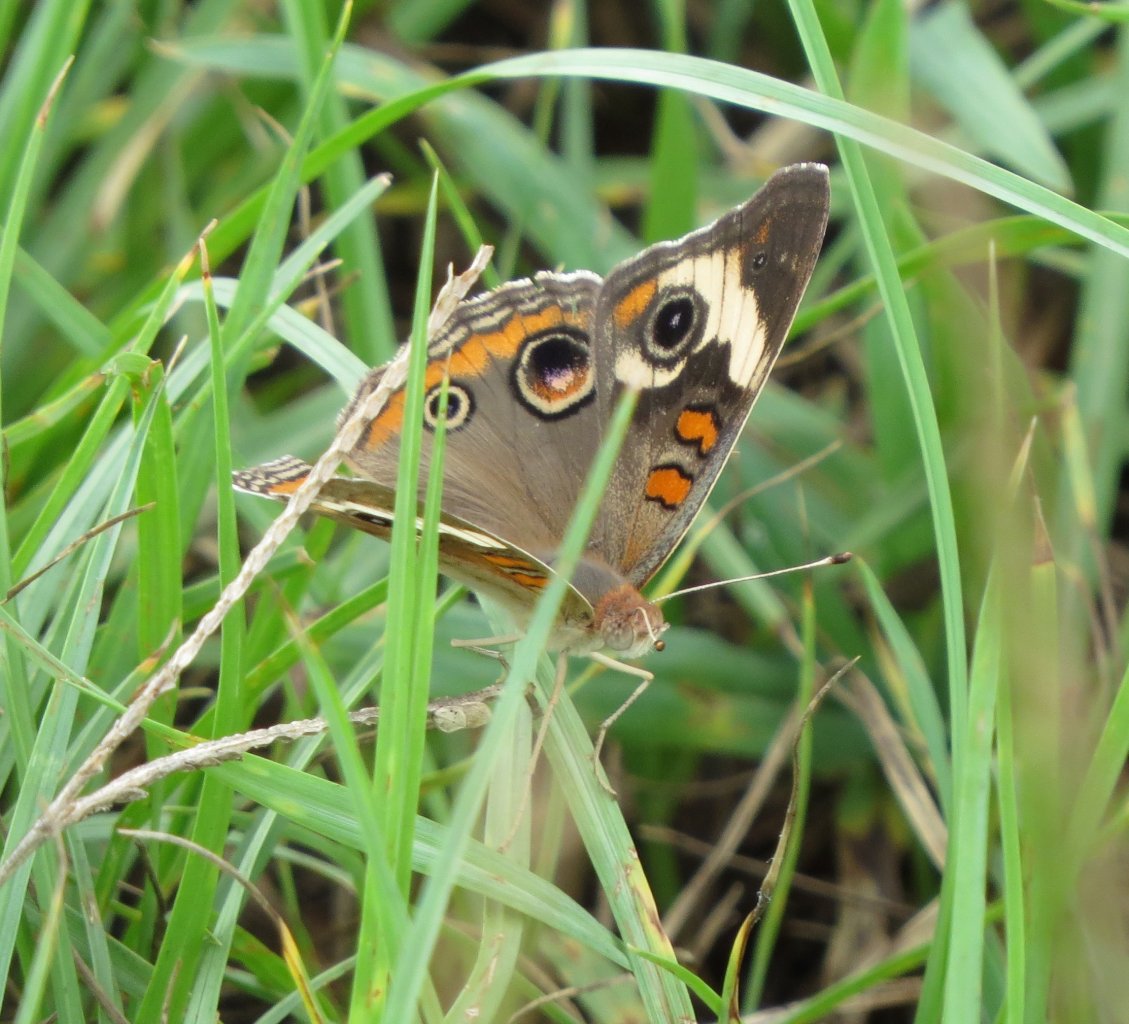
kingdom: Animalia
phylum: Arthropoda
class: Insecta
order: Lepidoptera
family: Nymphalidae
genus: Junonia
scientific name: Junonia coenia
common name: Common Buckeye
